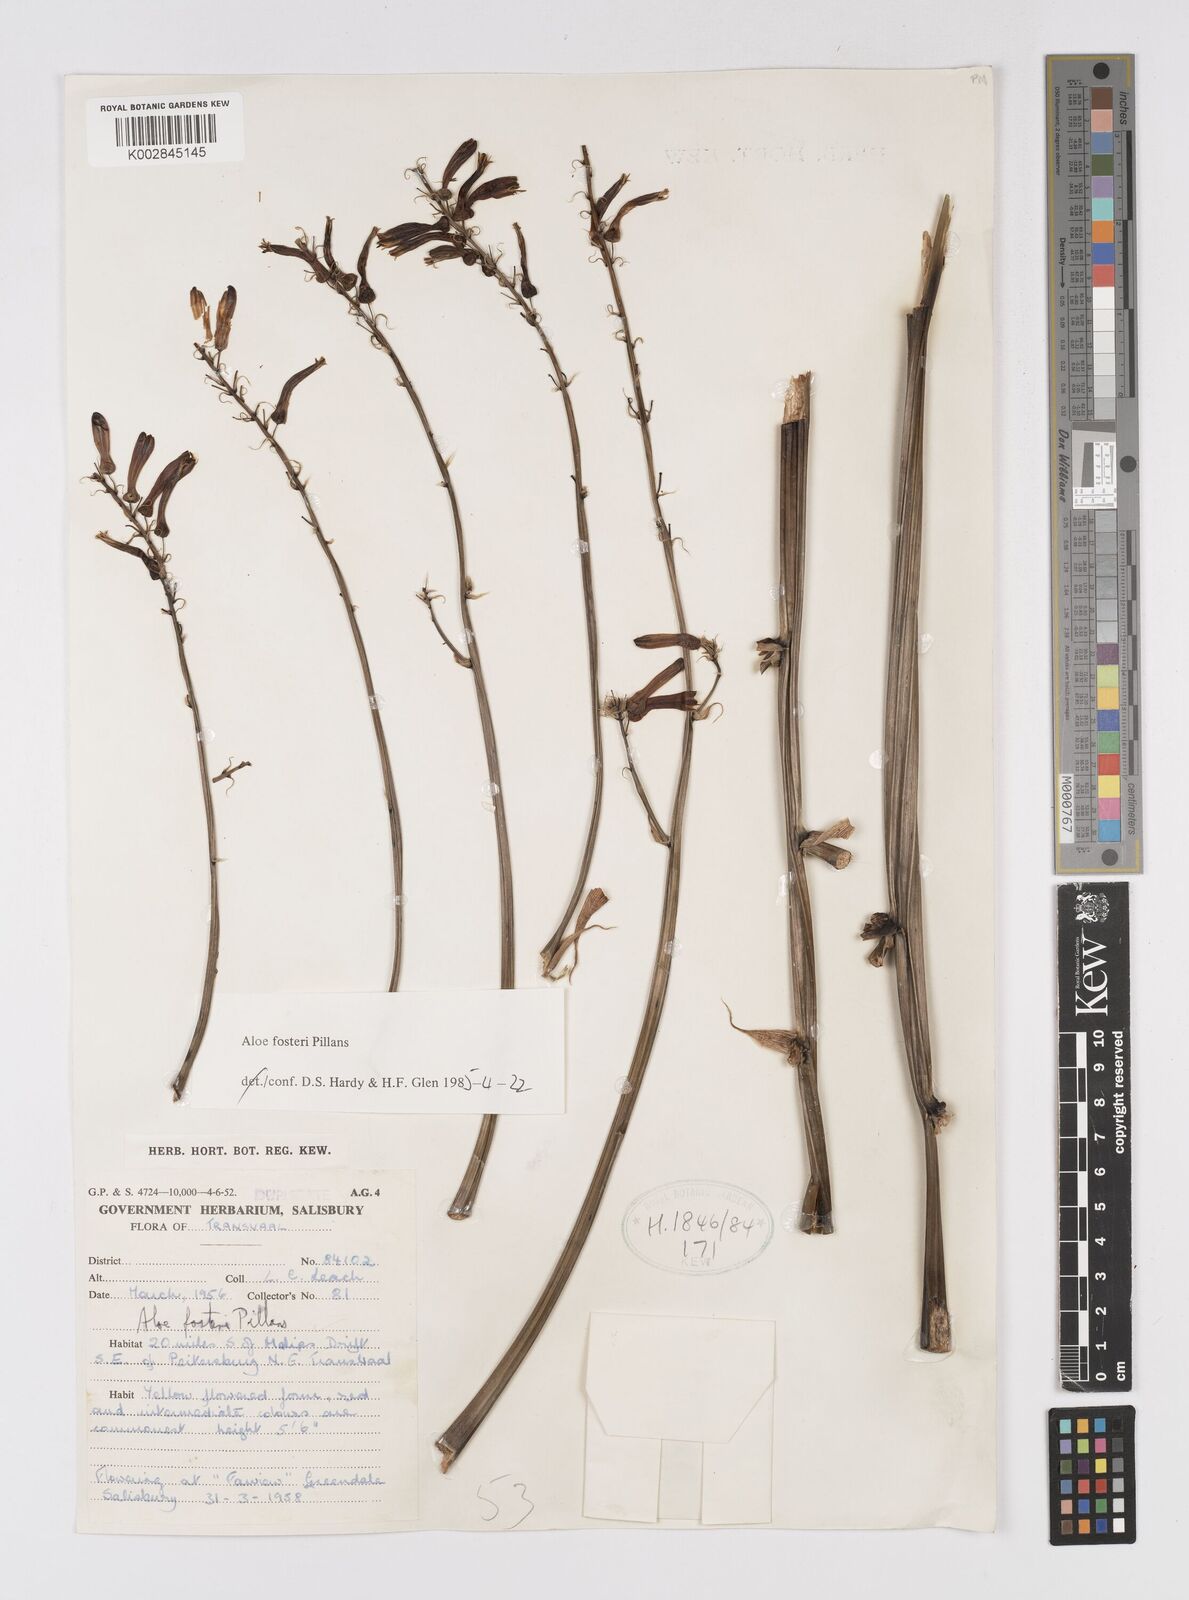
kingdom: Plantae
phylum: Tracheophyta
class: Liliopsida
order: Asparagales
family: Asphodelaceae
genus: Aloe
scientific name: Aloe fosteri
